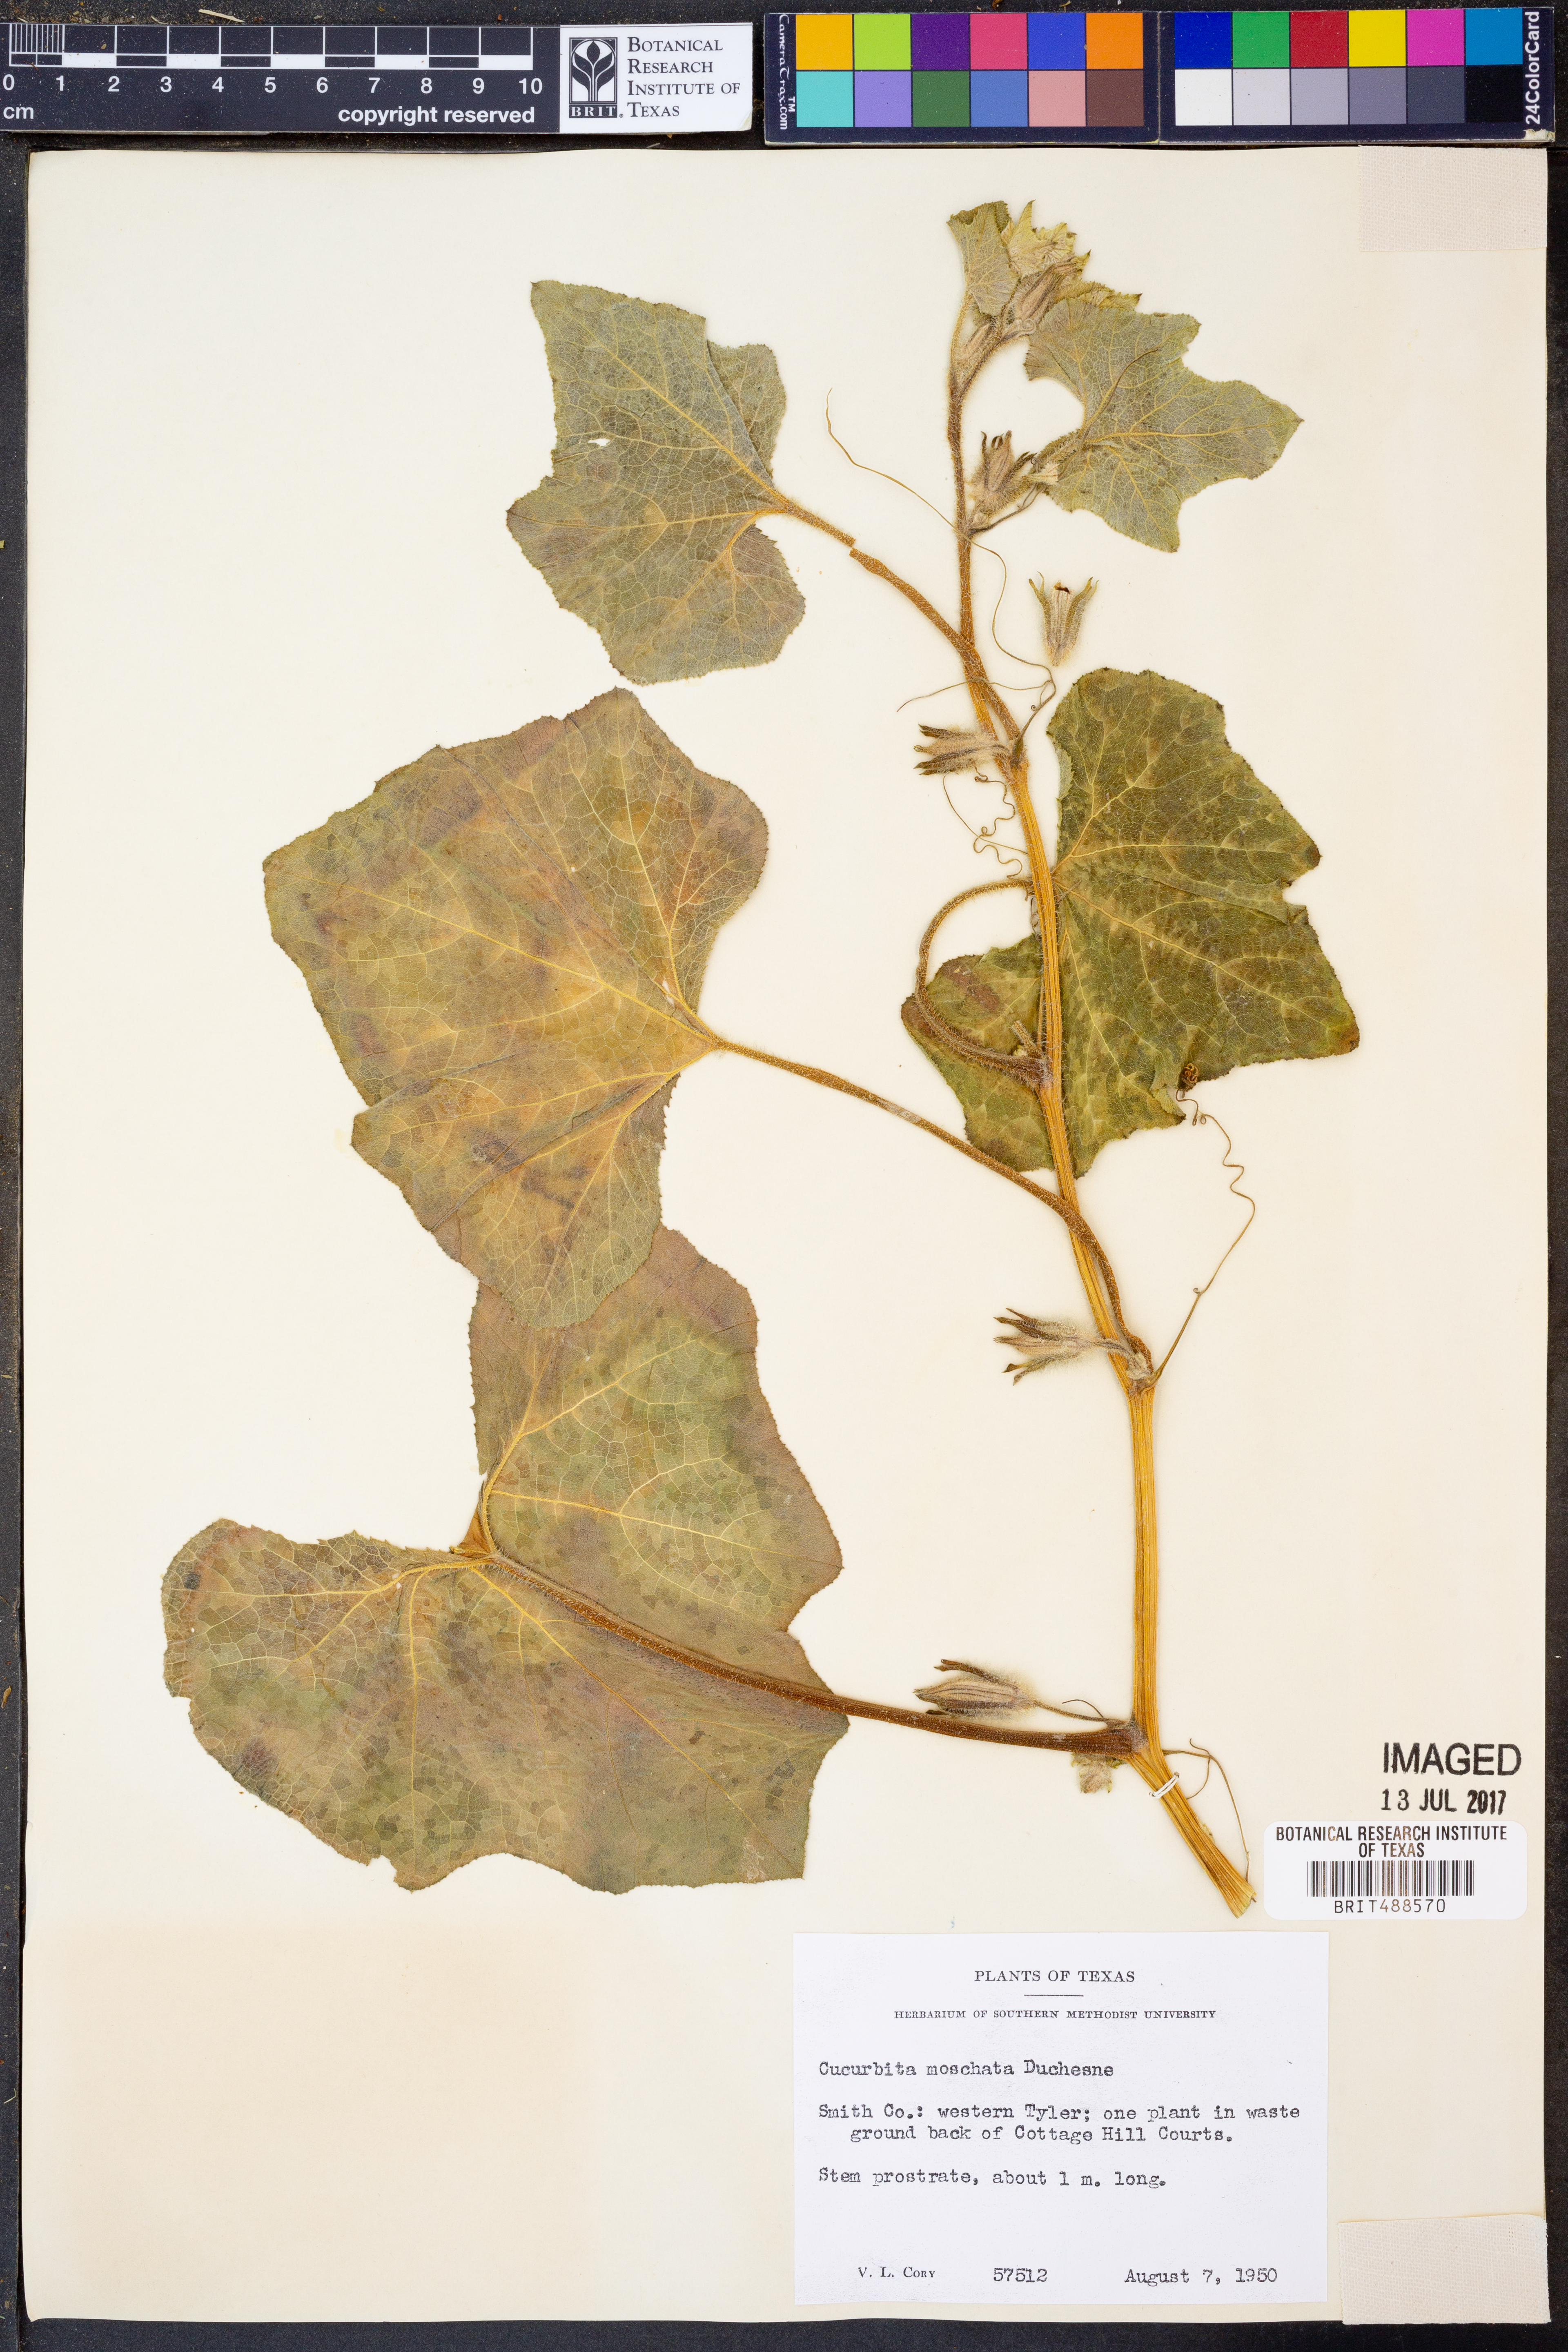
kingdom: Plantae
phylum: Tracheophyta
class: Magnoliopsida
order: Cucurbitales
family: Cucurbitaceae
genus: Cucurbita
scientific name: Cucurbita moschata
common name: Squash / pumpkin
